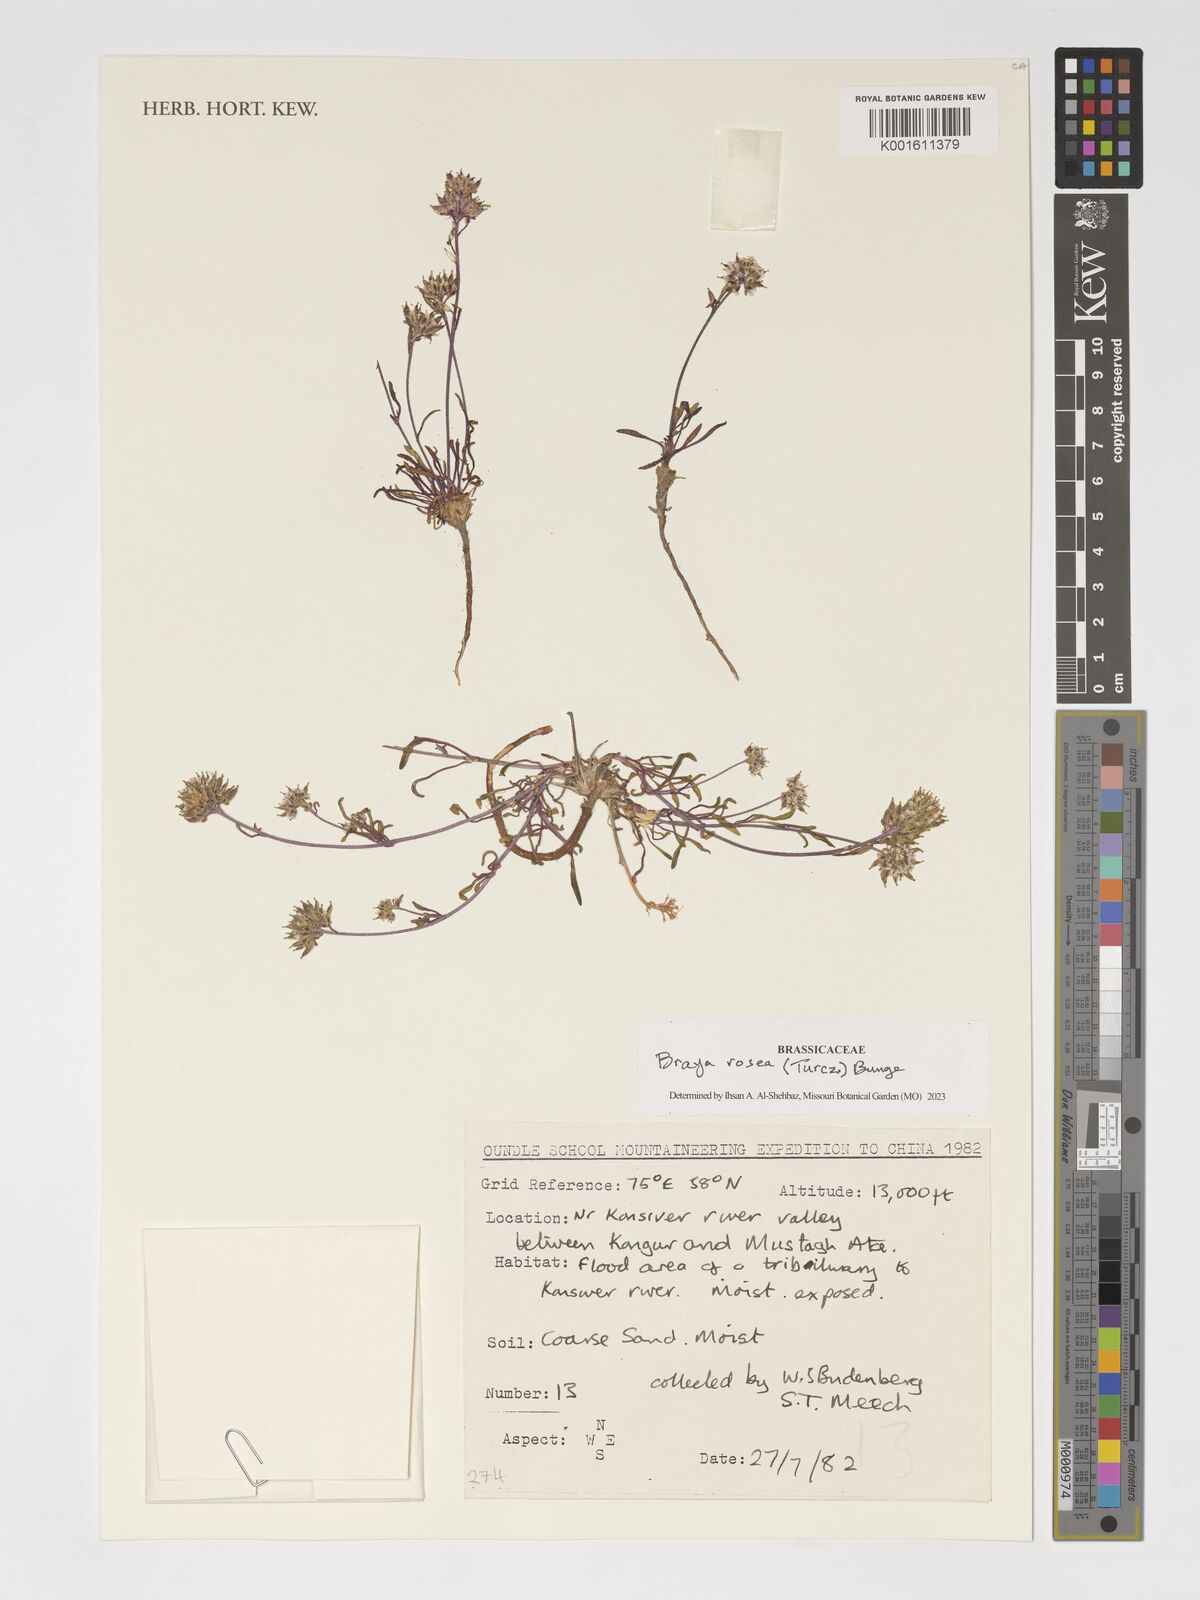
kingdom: Plantae
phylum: Tracheophyta
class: Magnoliopsida
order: Brassicales
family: Brassicaceae
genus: Braya
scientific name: Braya rosea
